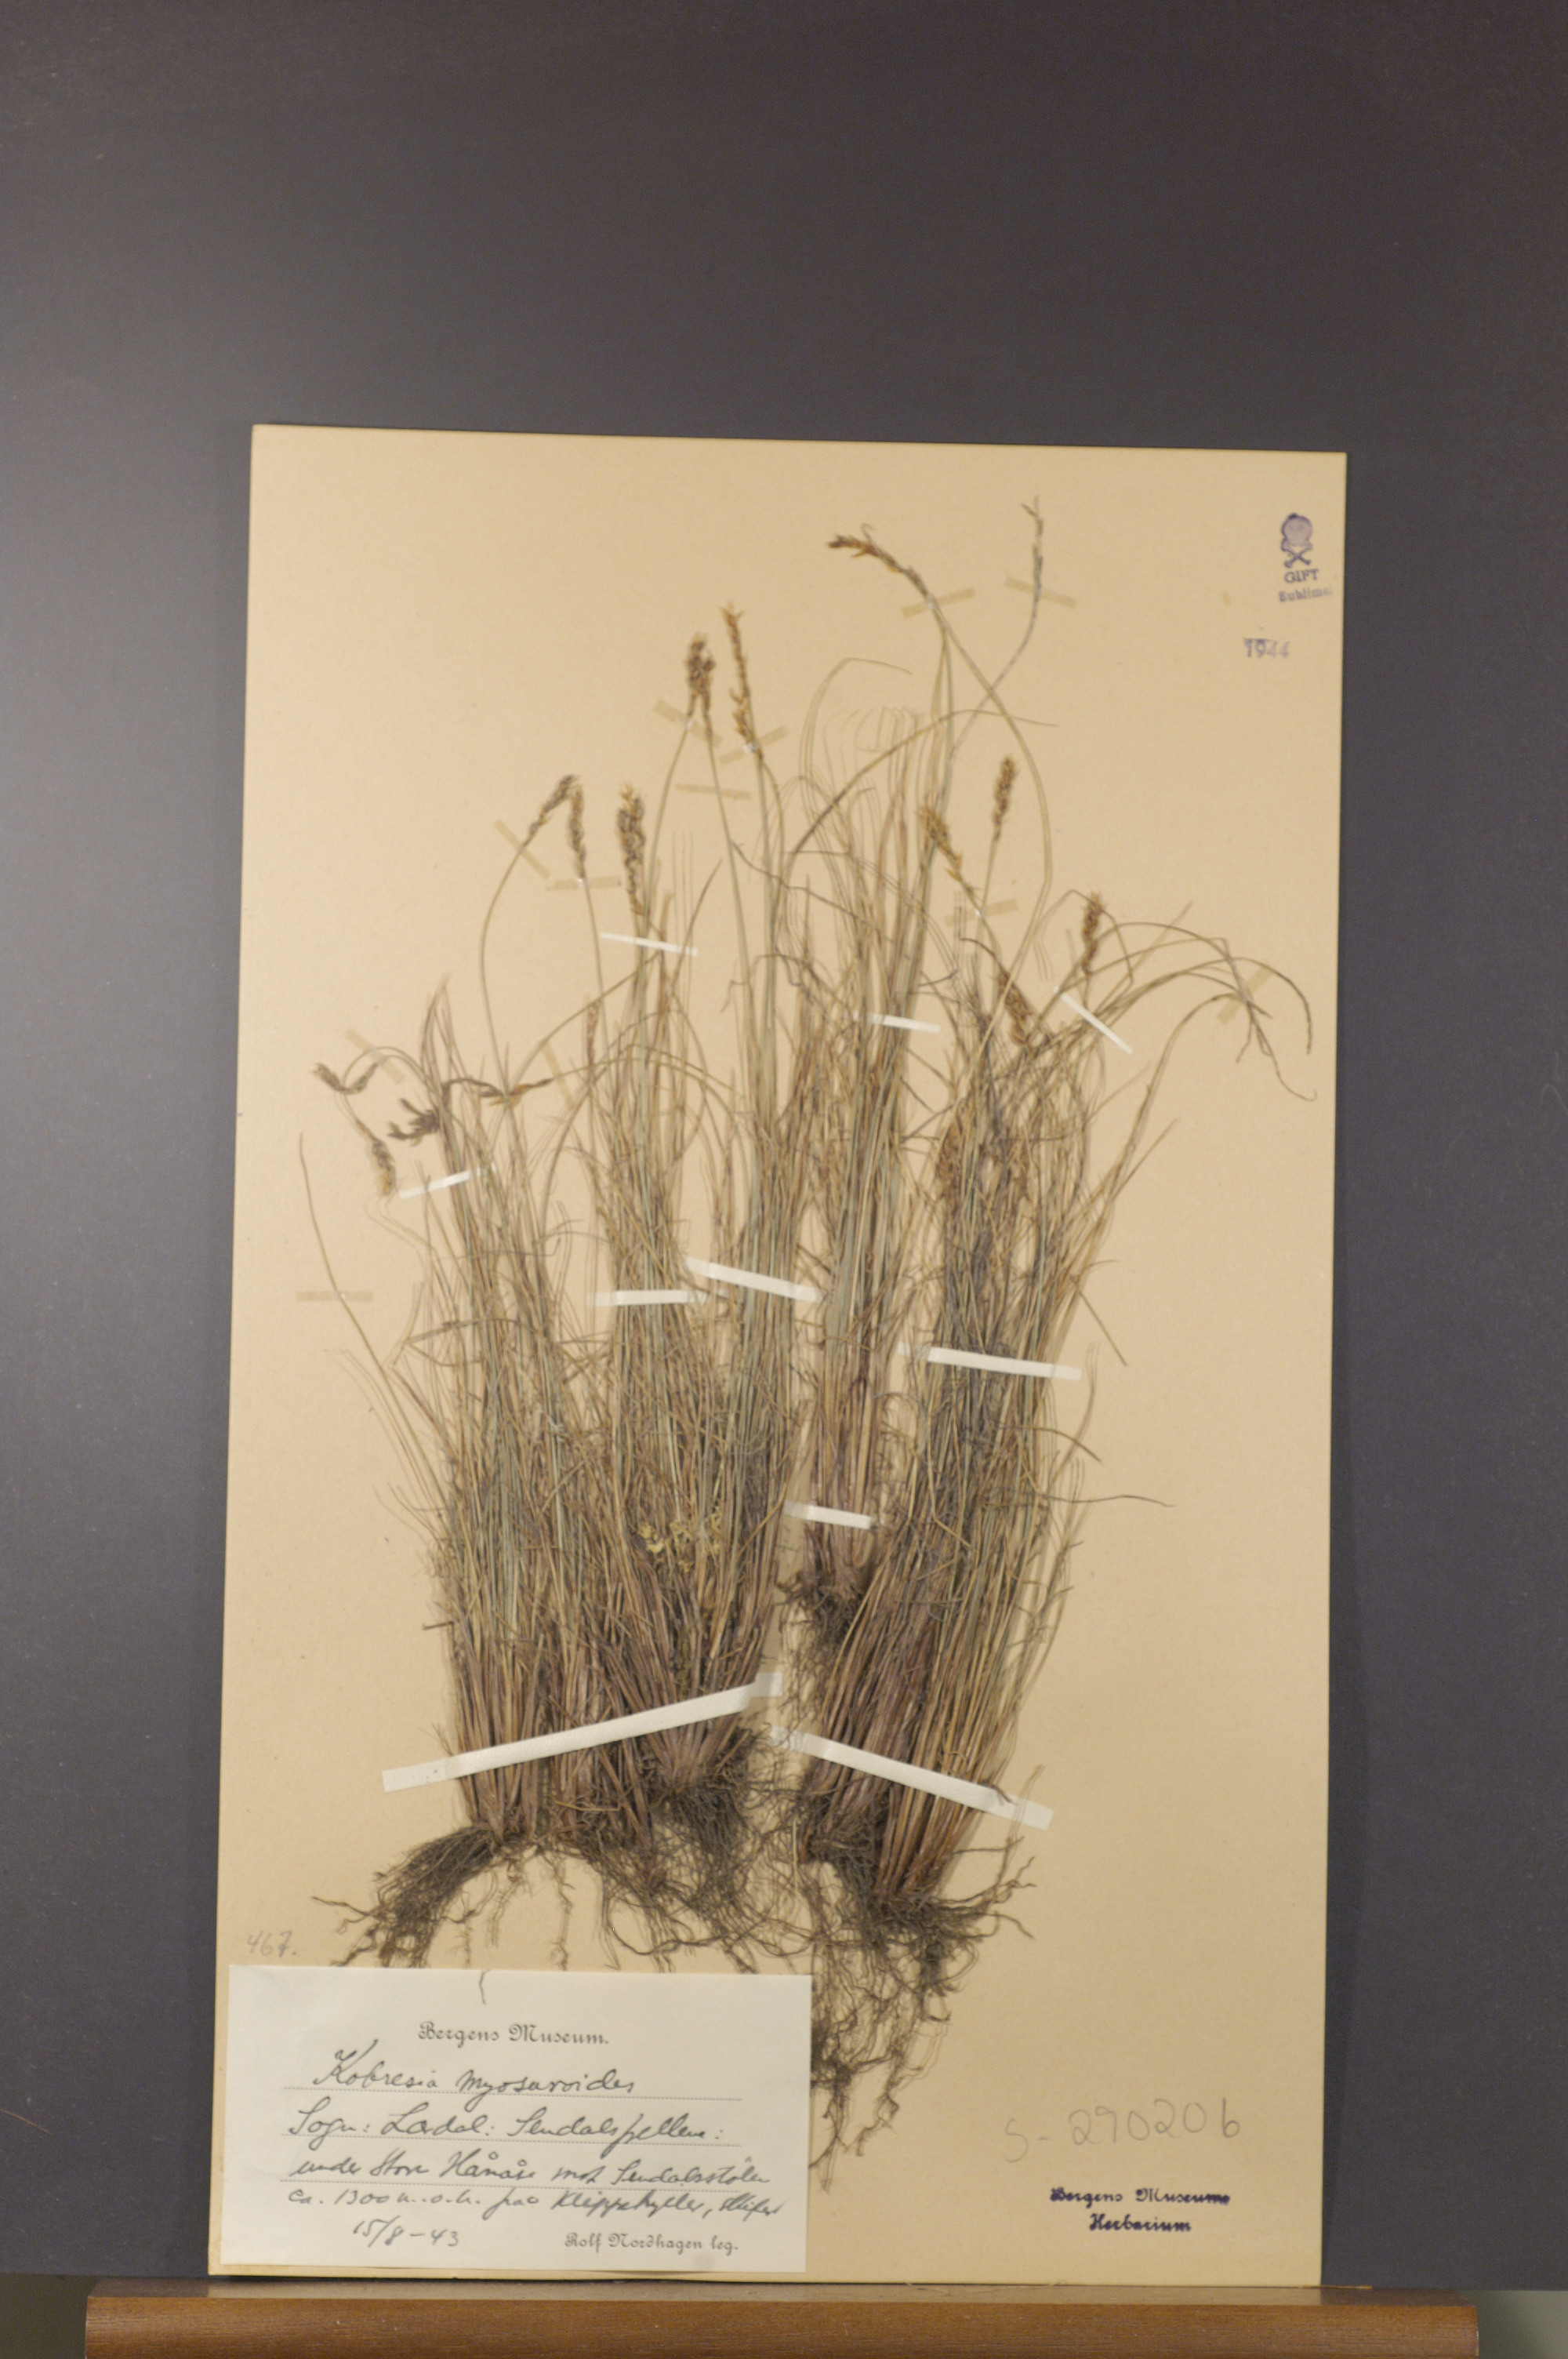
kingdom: Plantae
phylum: Tracheophyta
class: Liliopsida
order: Poales
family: Cyperaceae
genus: Carex
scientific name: Carex myosuroides
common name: Bellard's bog sedge
